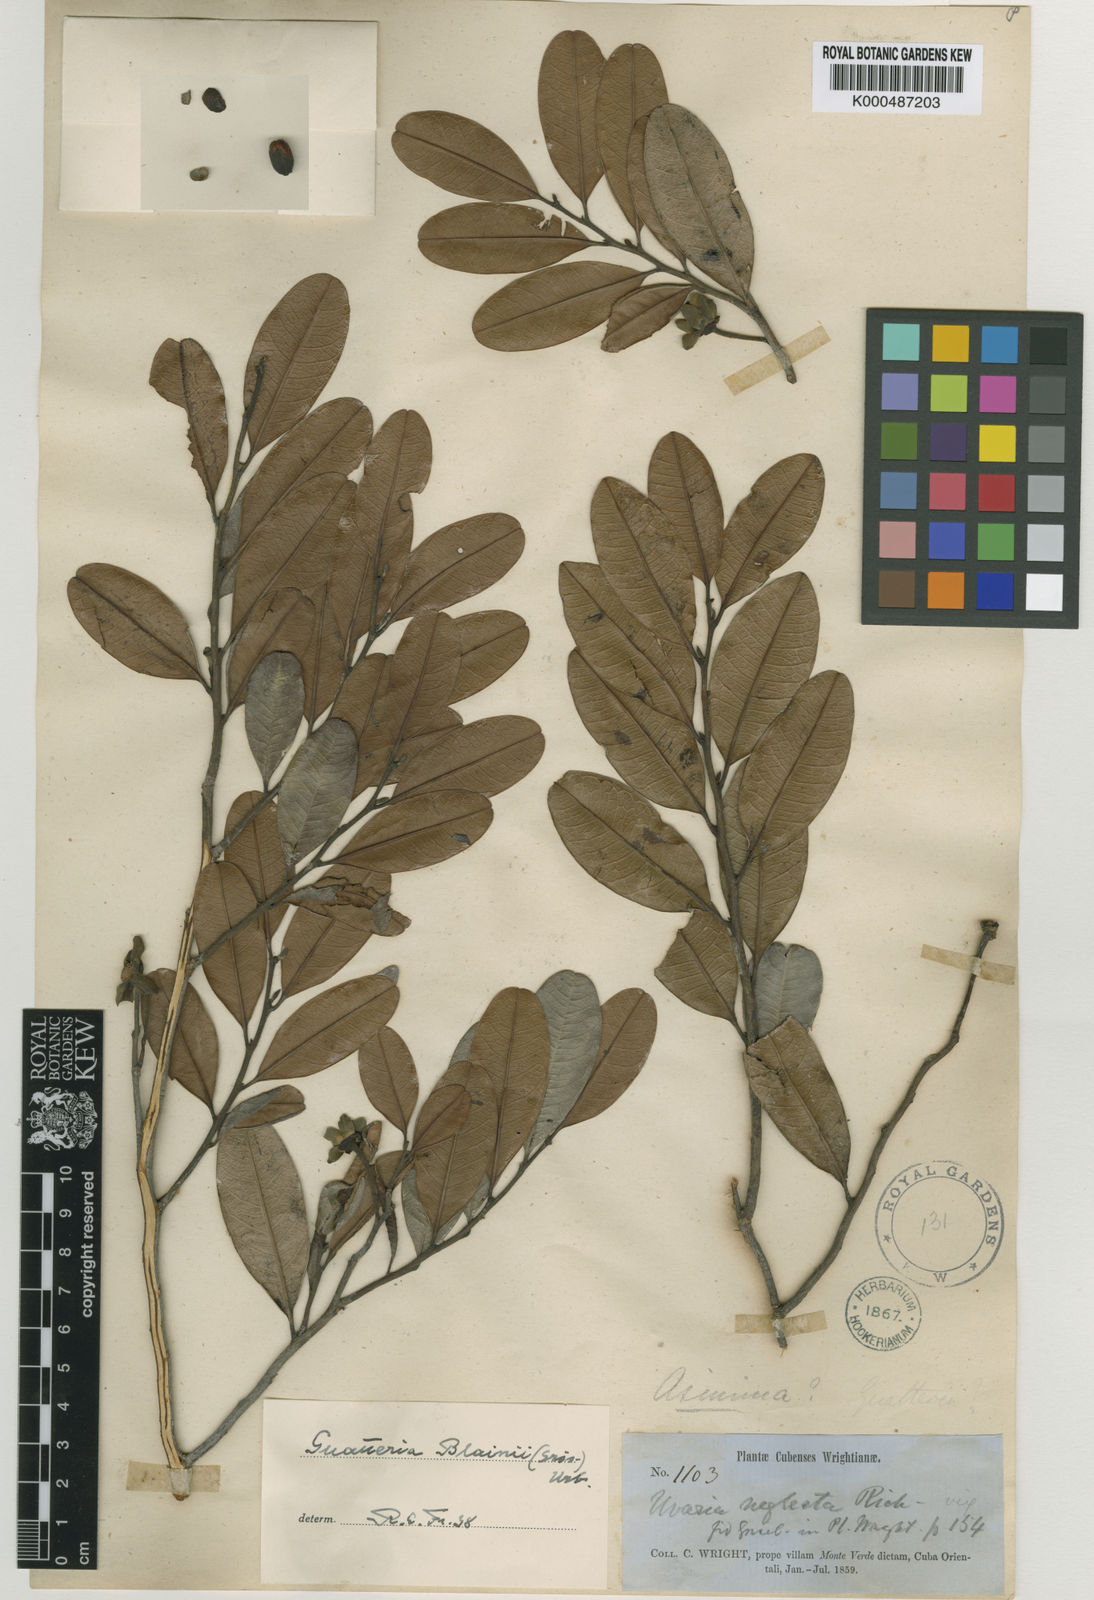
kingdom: Plantae
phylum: Tracheophyta
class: Magnoliopsida
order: Magnoliales
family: Annonaceae
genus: Guatteria
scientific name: Guatteria blainii
